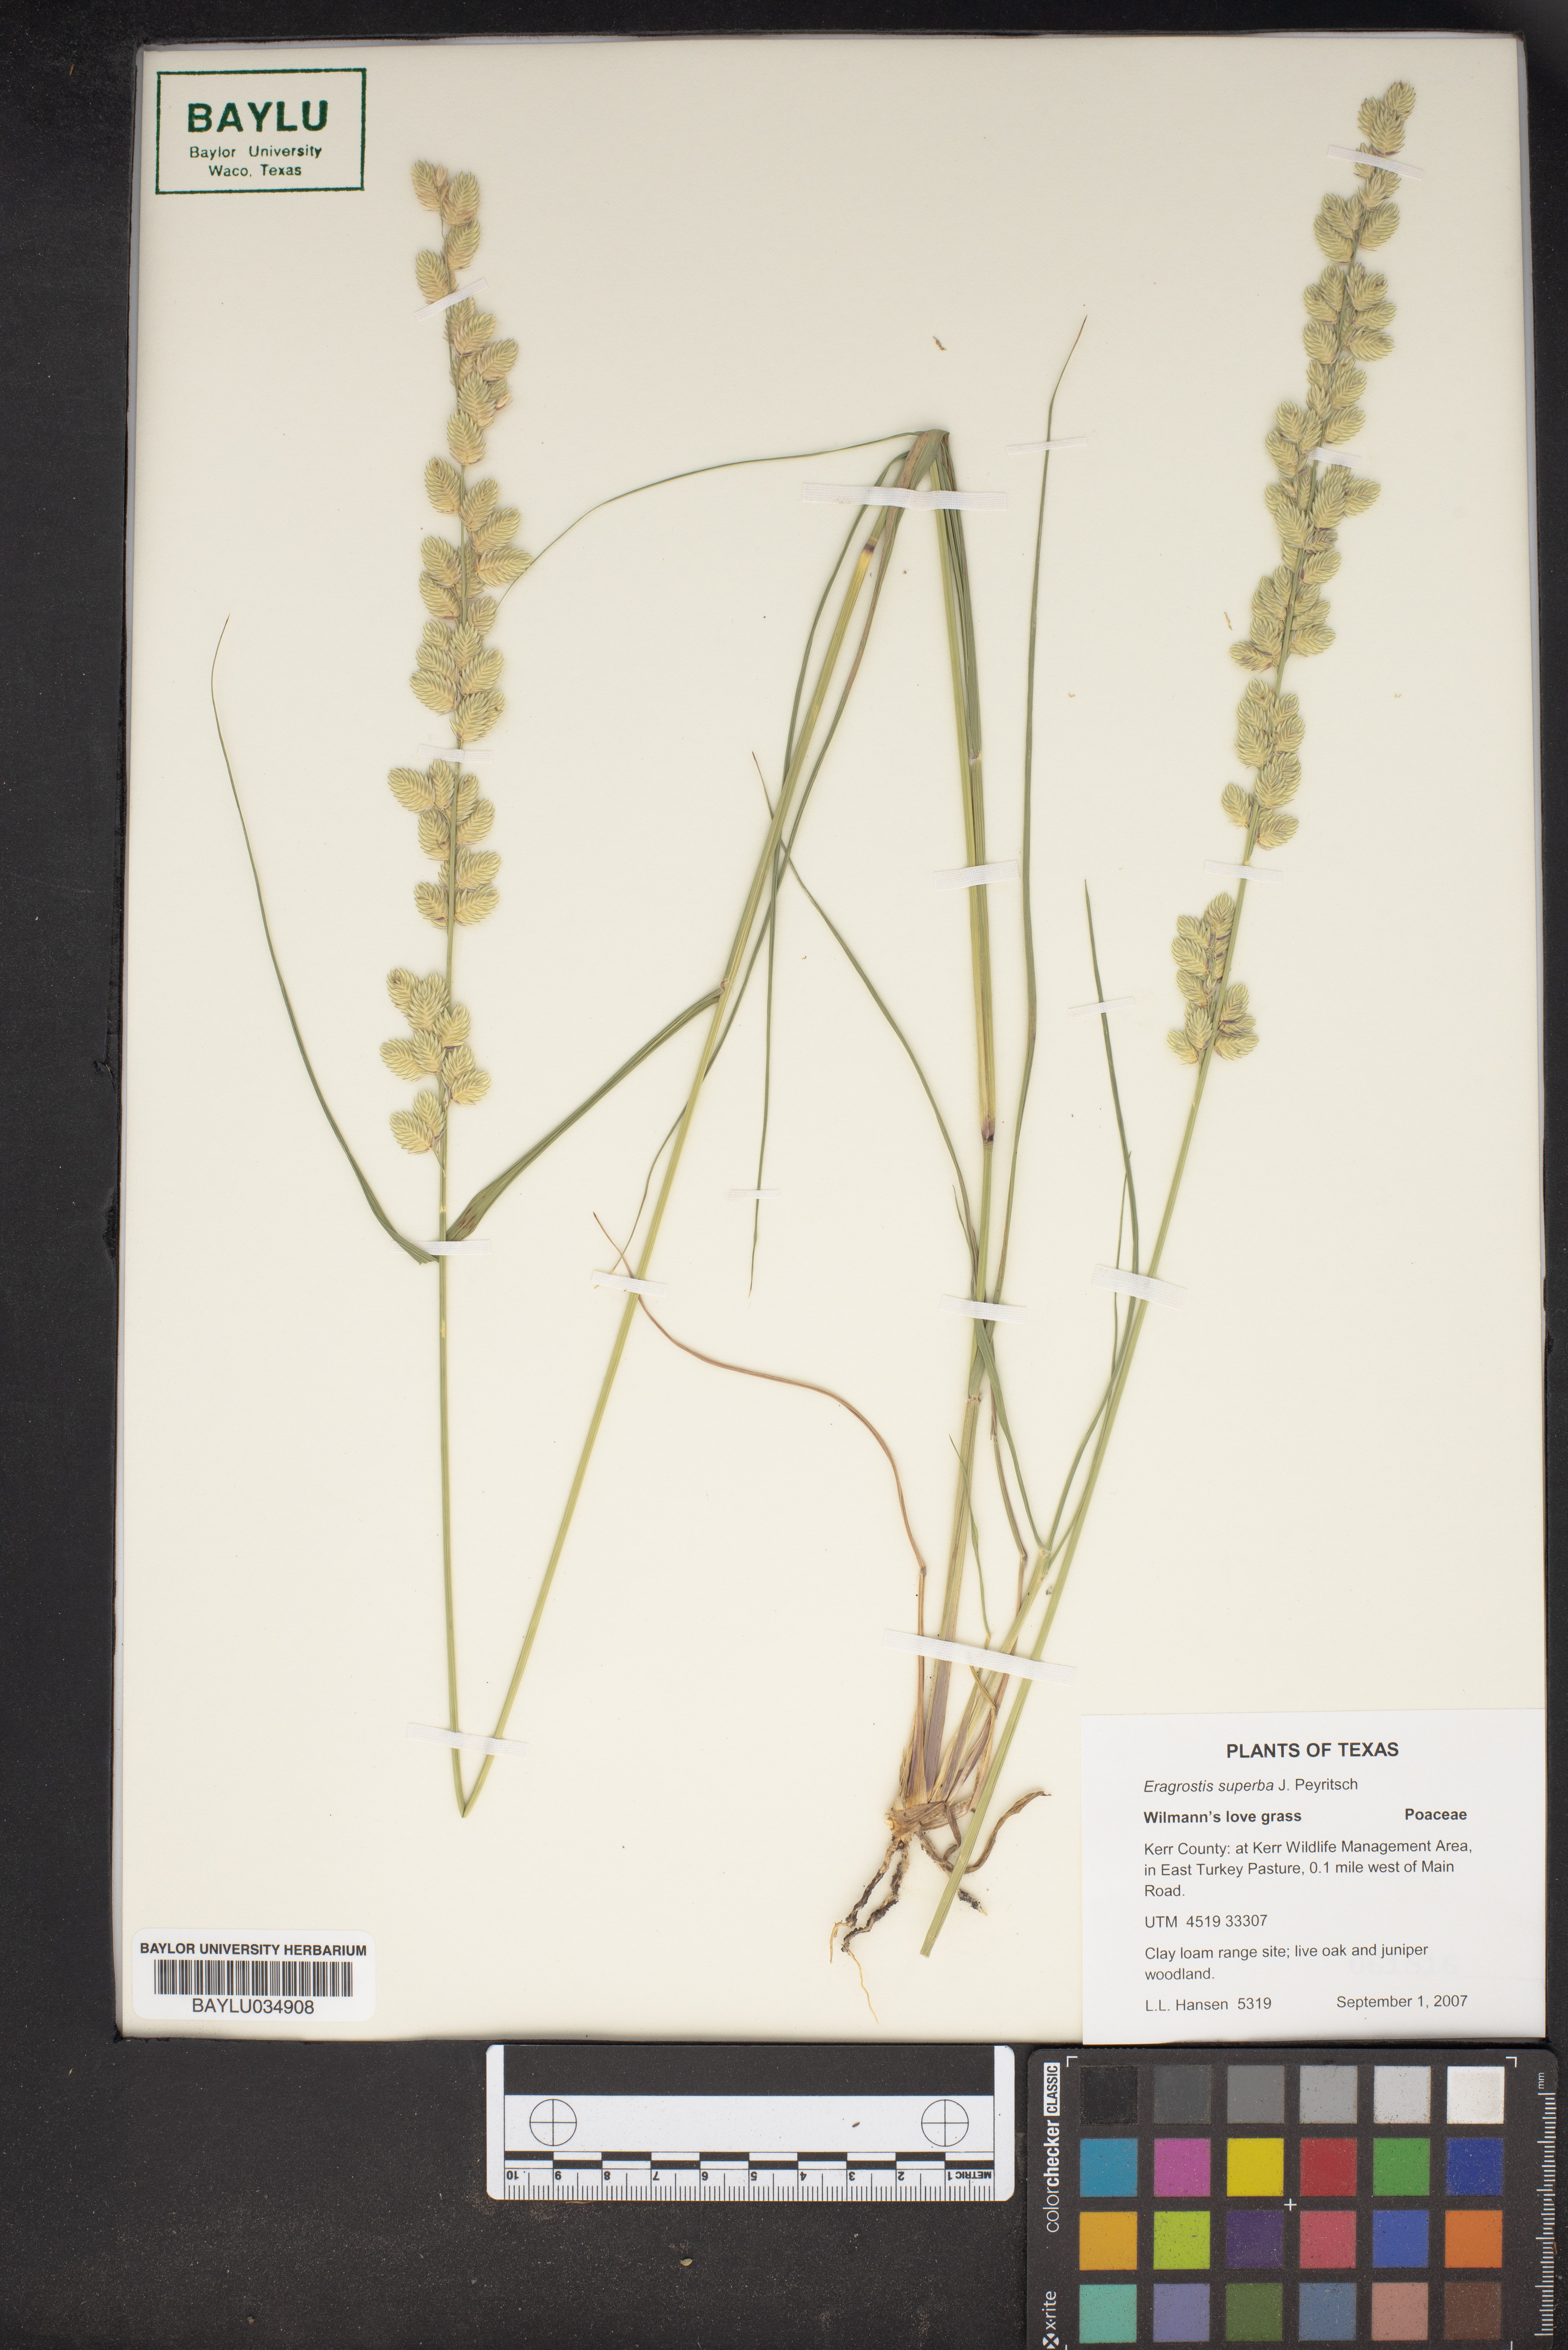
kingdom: Plantae
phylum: Tracheophyta
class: Liliopsida
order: Poales
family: Poaceae
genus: Eragrostis
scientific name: Eragrostis superba
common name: Wilman lovegrass
